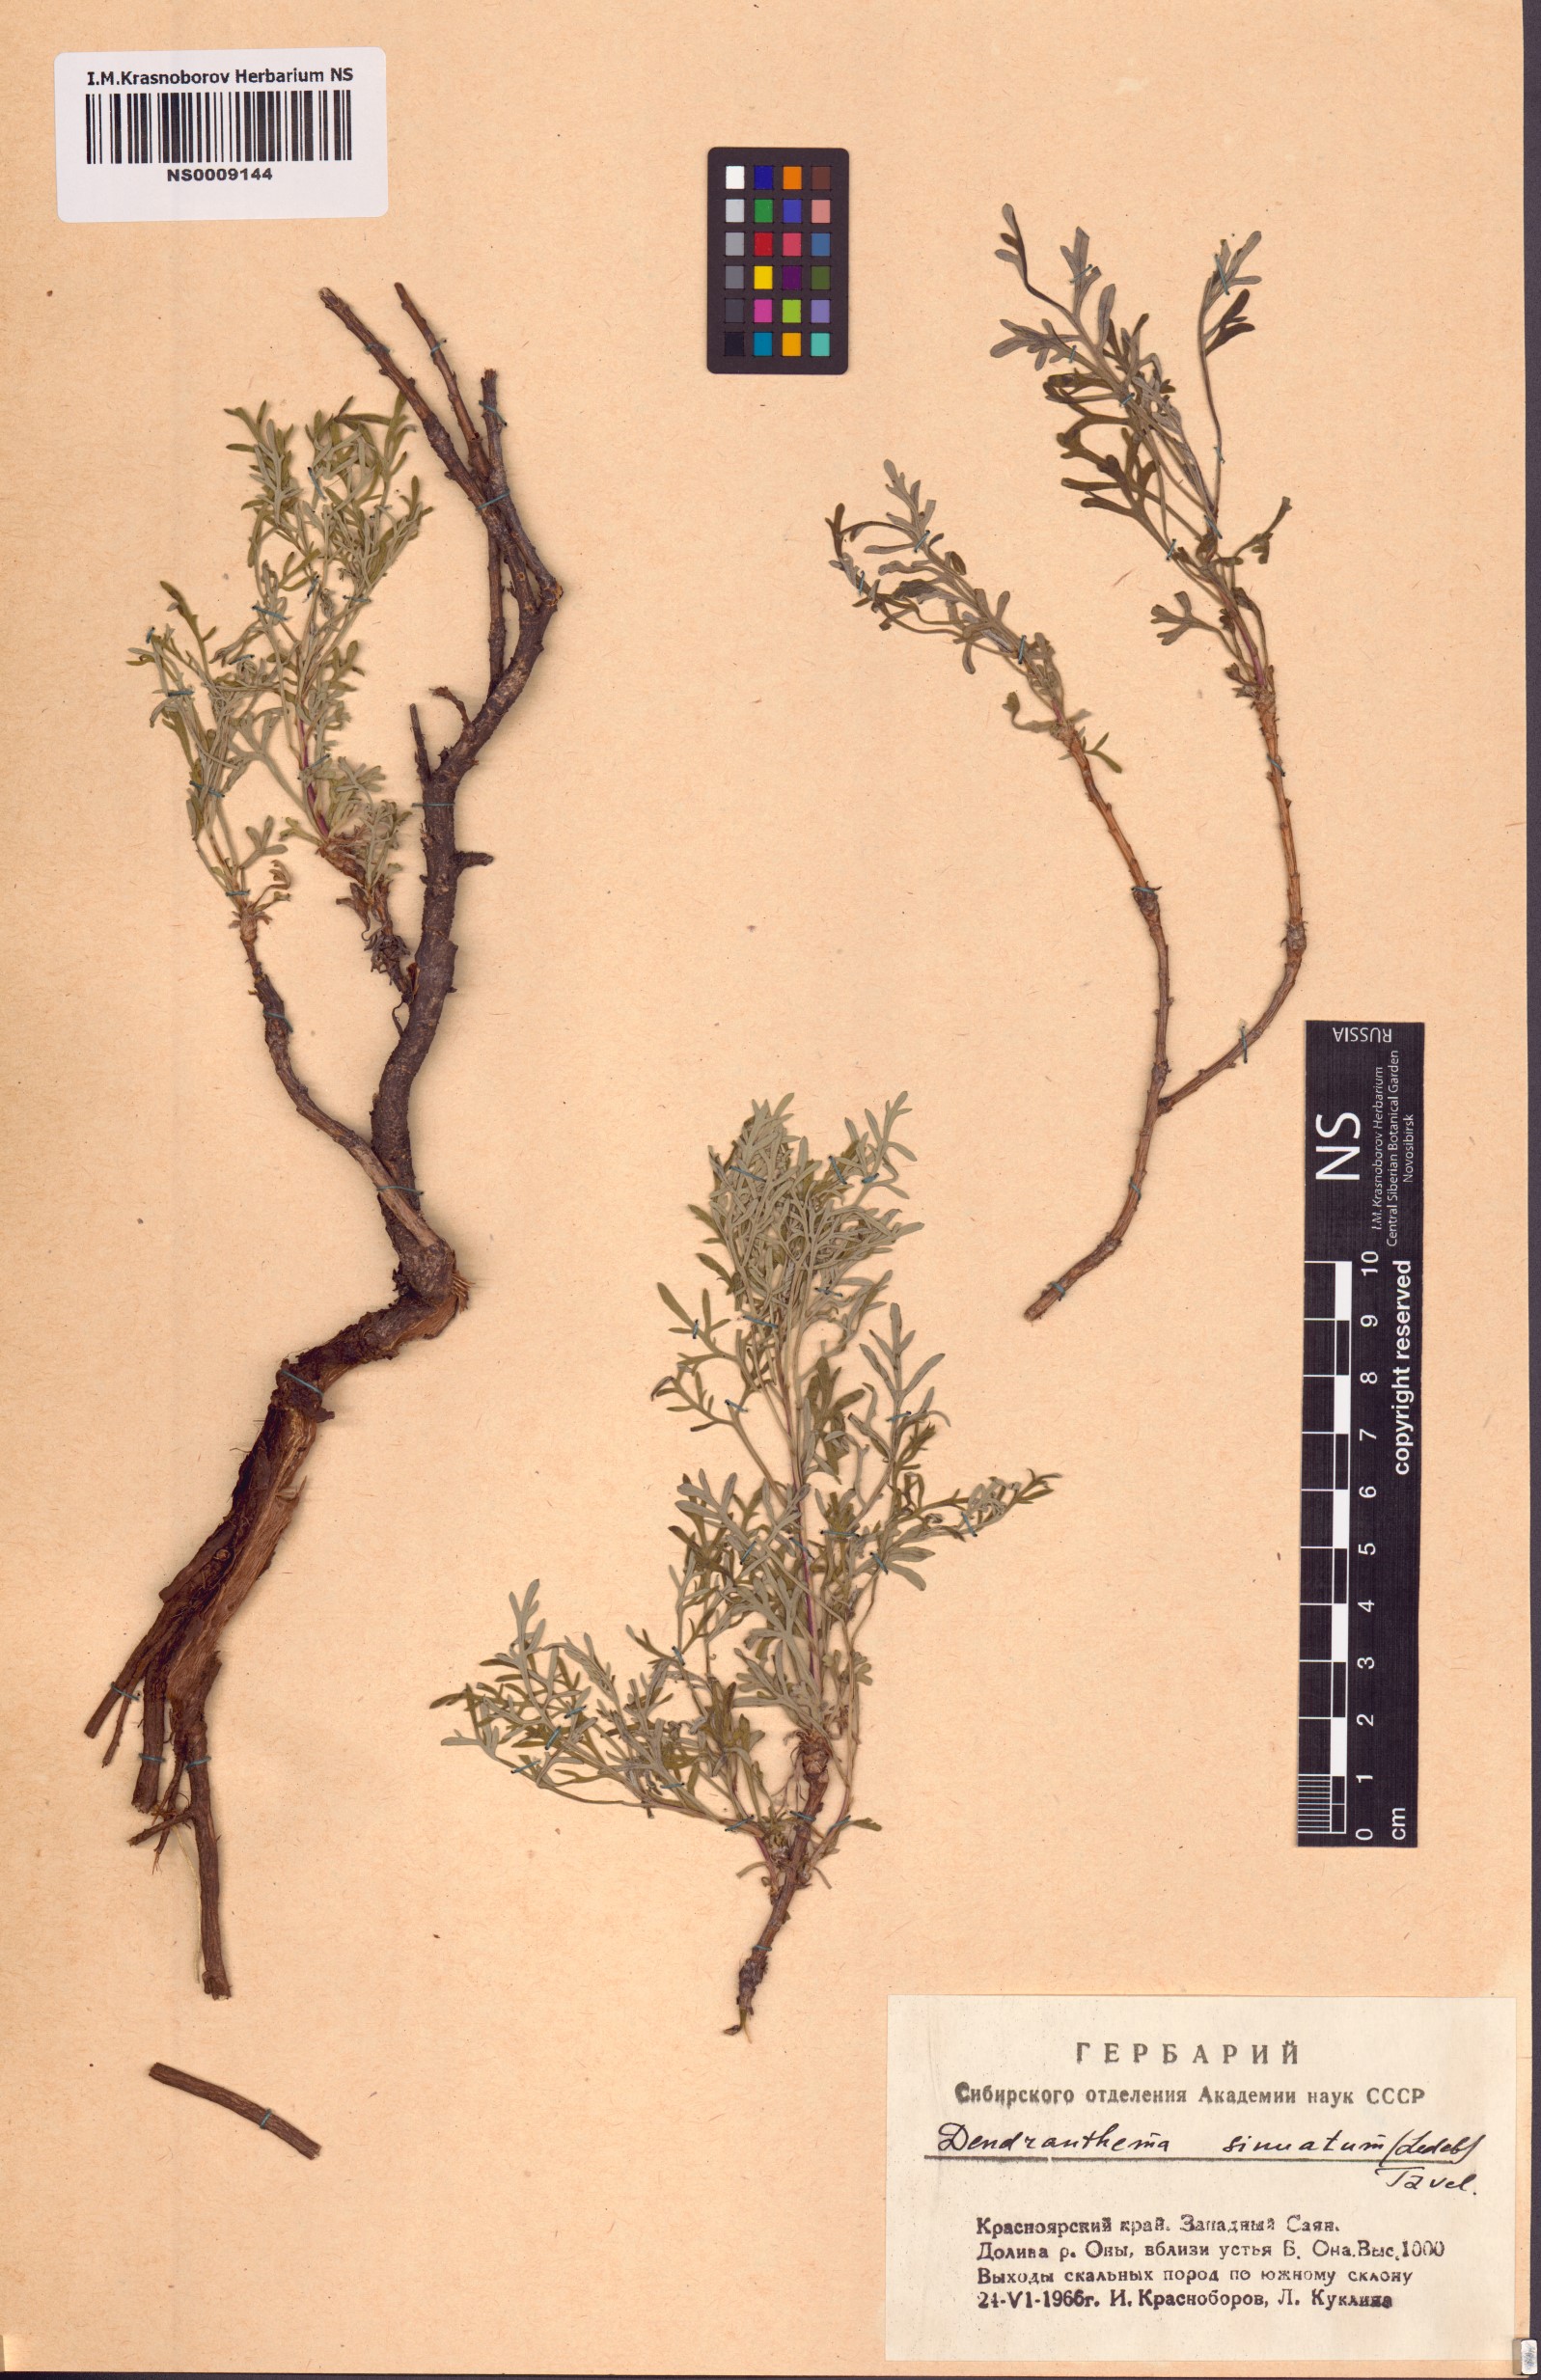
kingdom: Plantae
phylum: Tracheophyta
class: Magnoliopsida
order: Asterales
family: Asteraceae
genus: Chrysanthemum
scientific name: Chrysanthemum sinuatum
